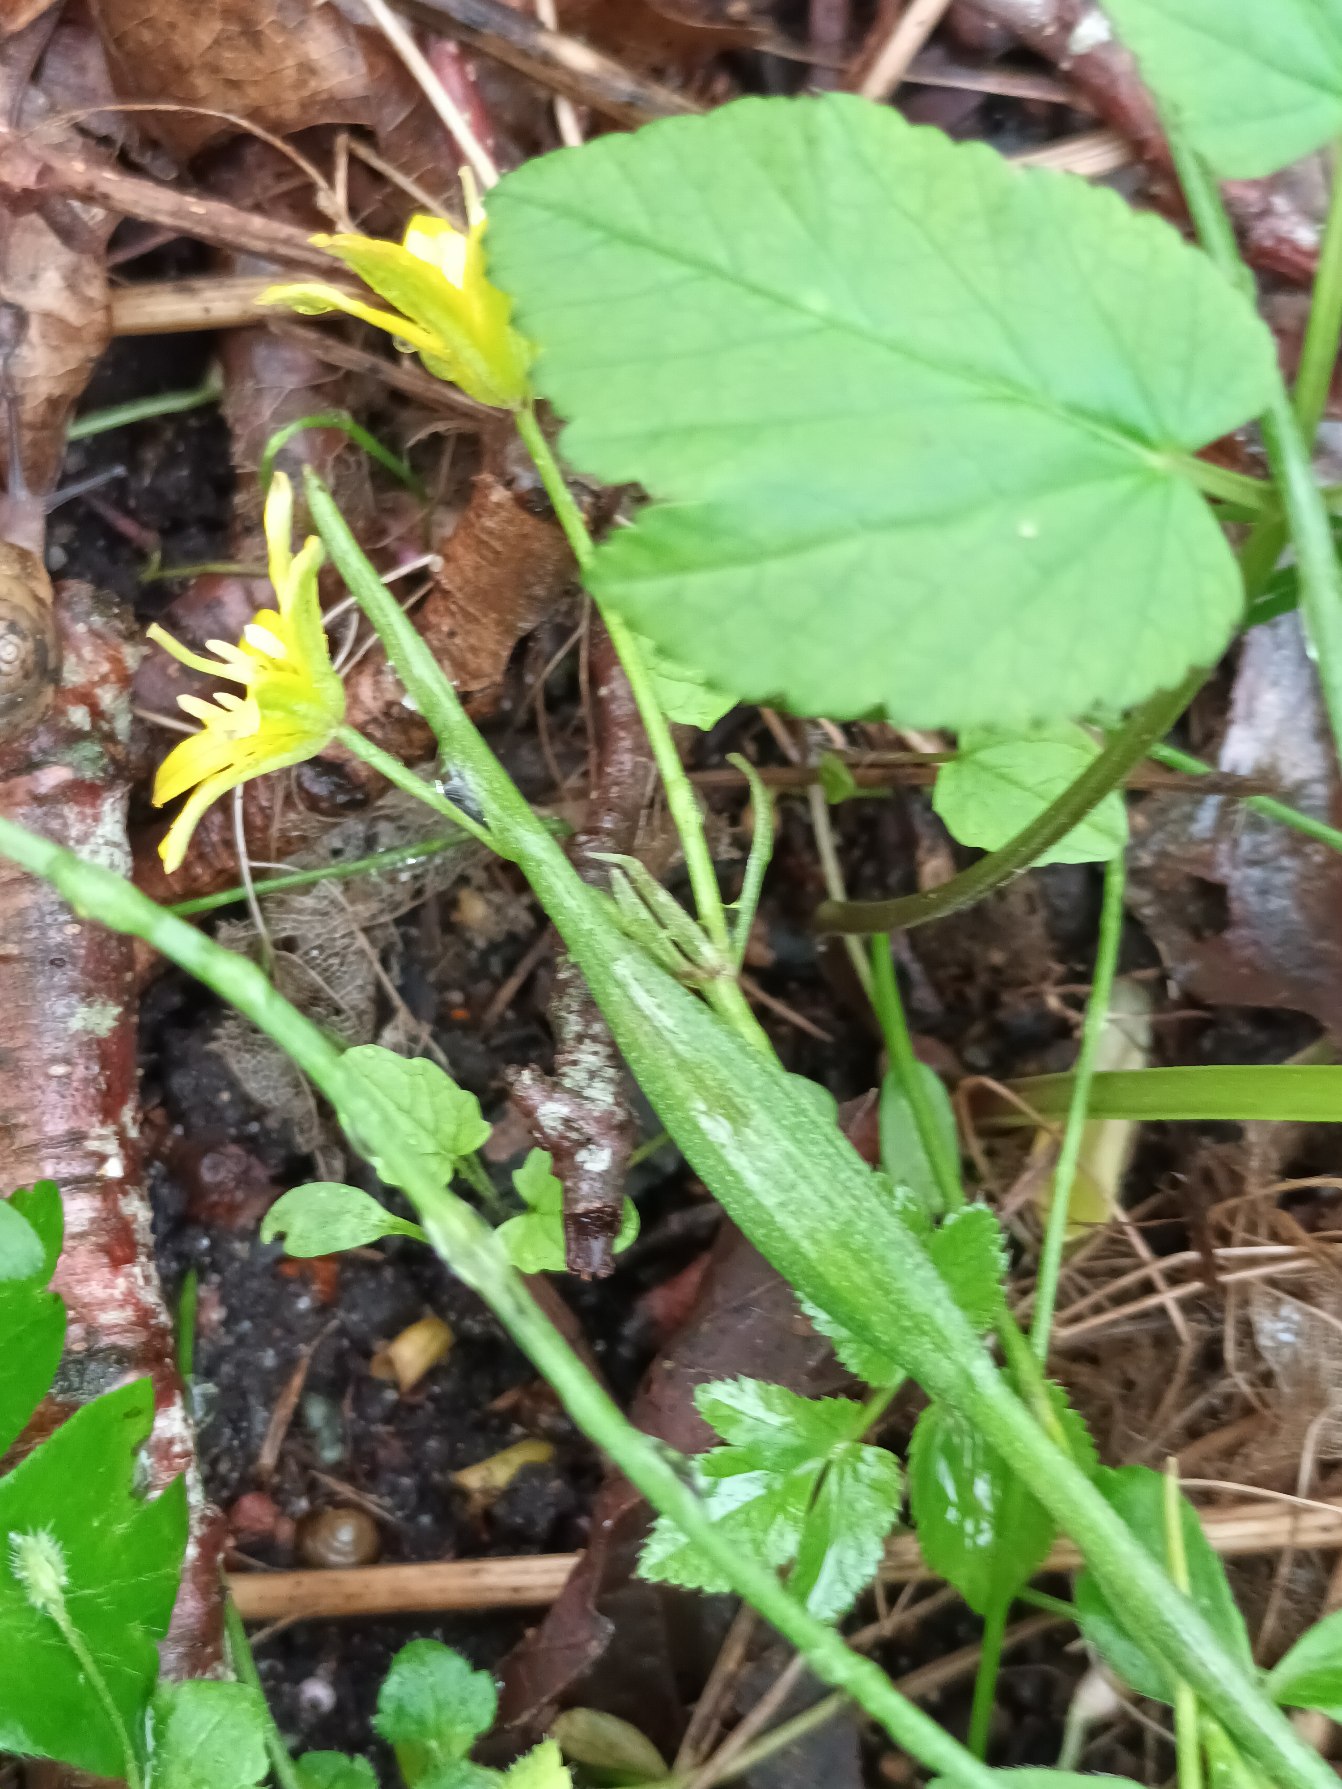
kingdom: Plantae
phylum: Tracheophyta
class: Liliopsida
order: Liliales
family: Liliaceae
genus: Gagea
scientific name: Gagea spathacea
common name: Hylster-guldstjerne
